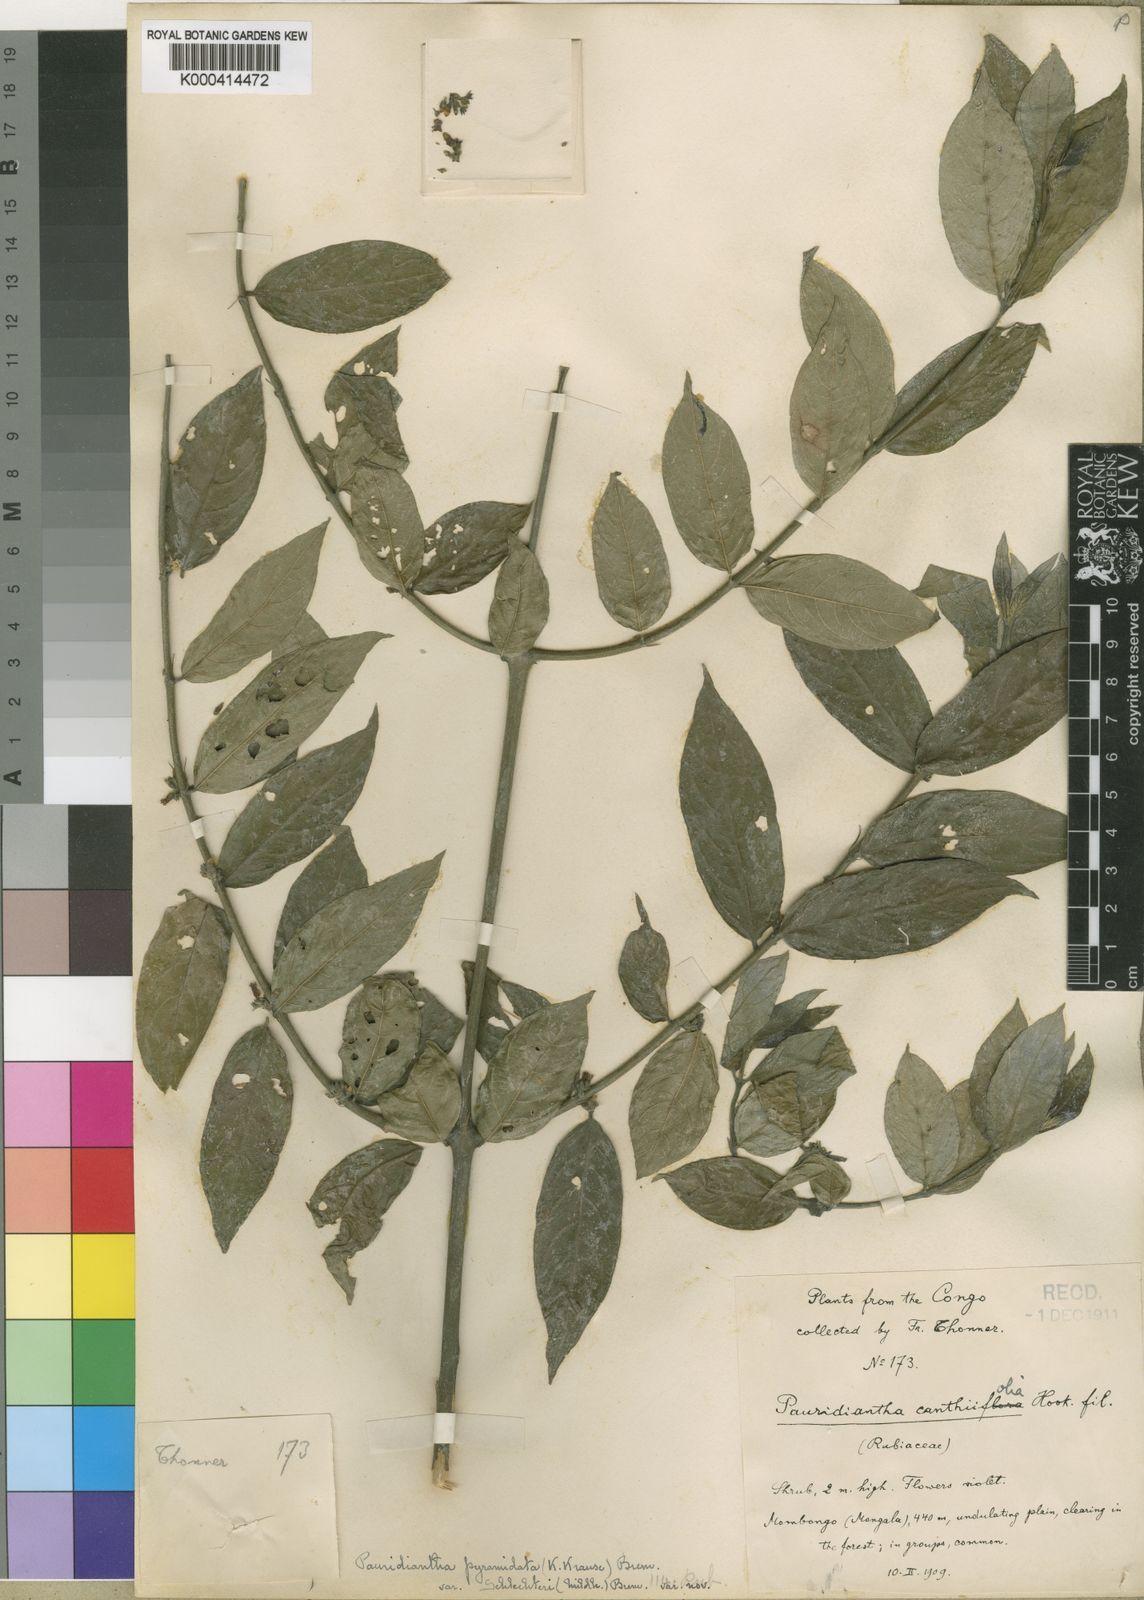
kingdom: Plantae
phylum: Tracheophyta
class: Magnoliopsida
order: Gentianales
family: Rubiaceae
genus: Pauridiantha
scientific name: Pauridiantha pyramidata
